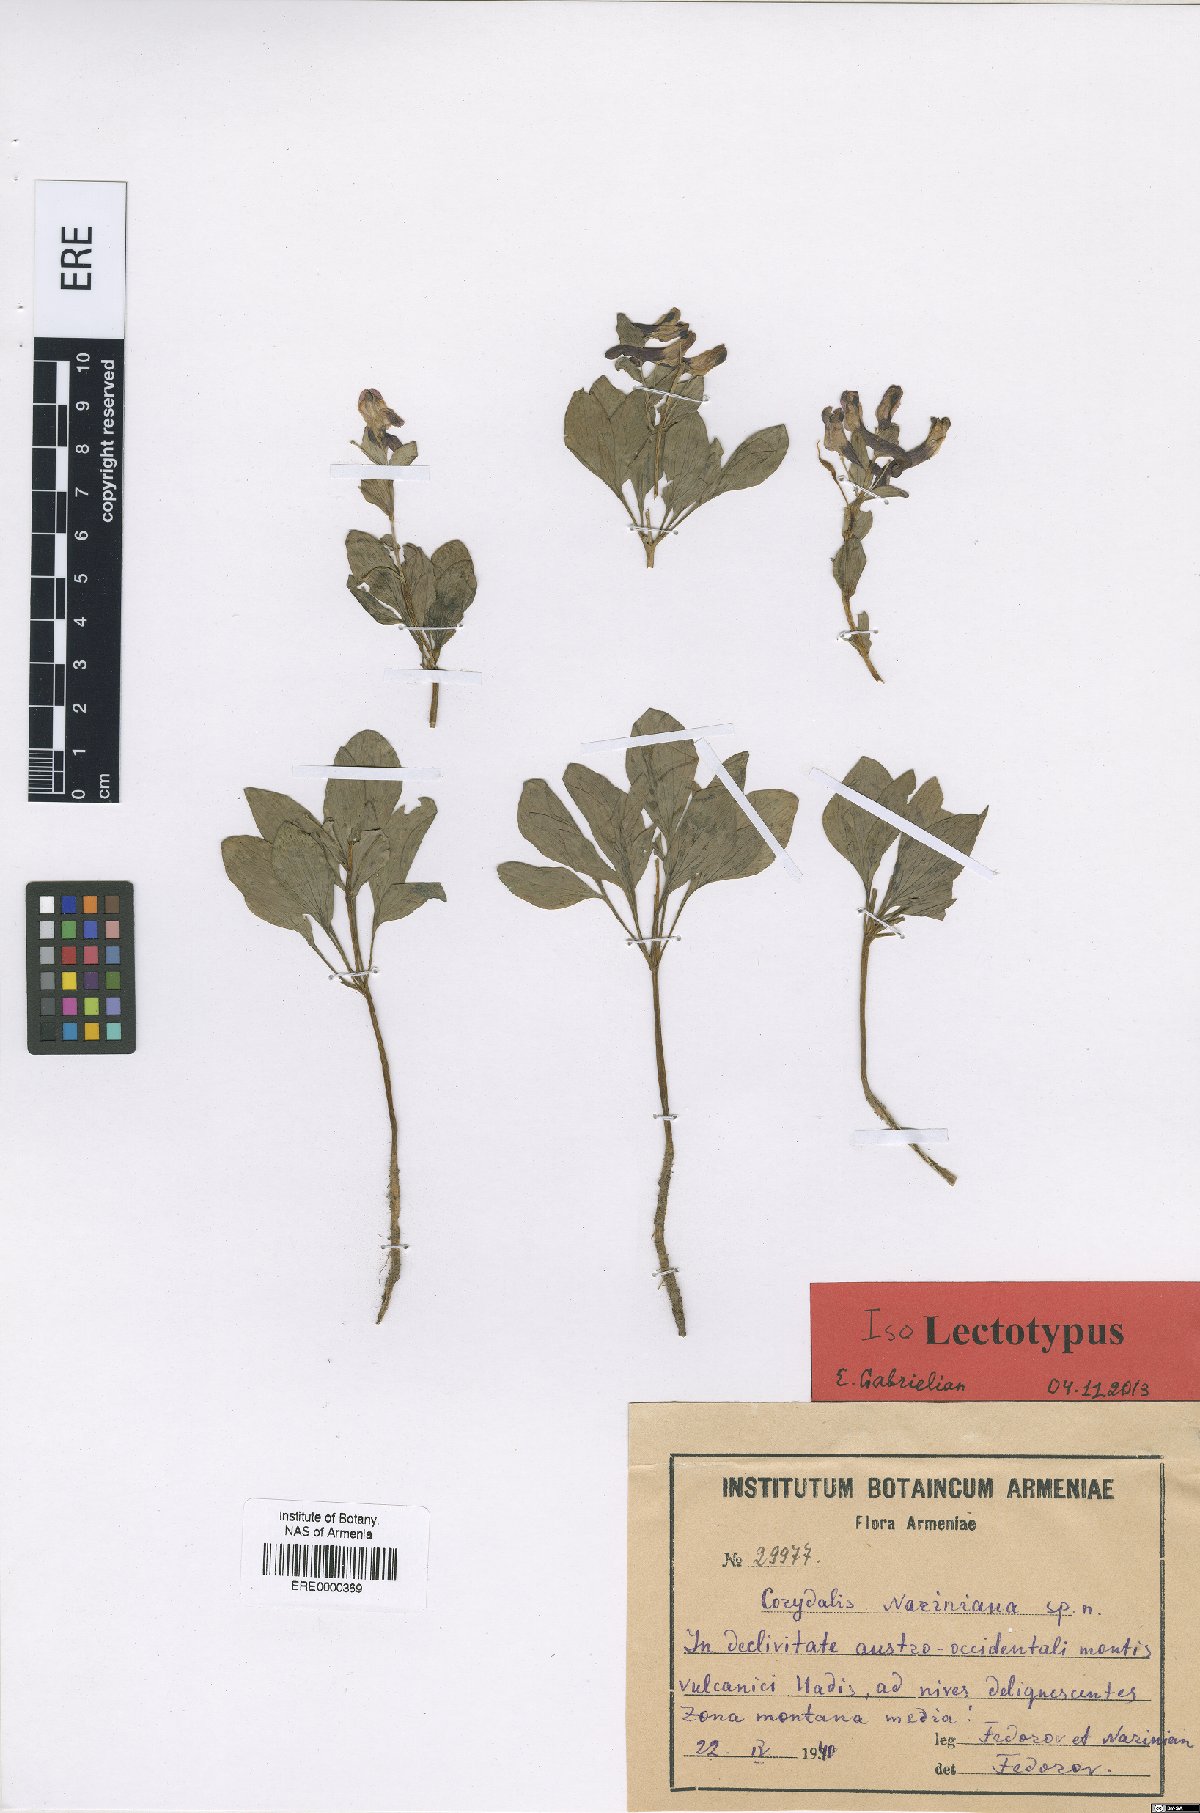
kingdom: Plantae
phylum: Tracheophyta
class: Magnoliopsida
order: Ranunculales
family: Papaveraceae
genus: Corydalis
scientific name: Corydalis nariniana
